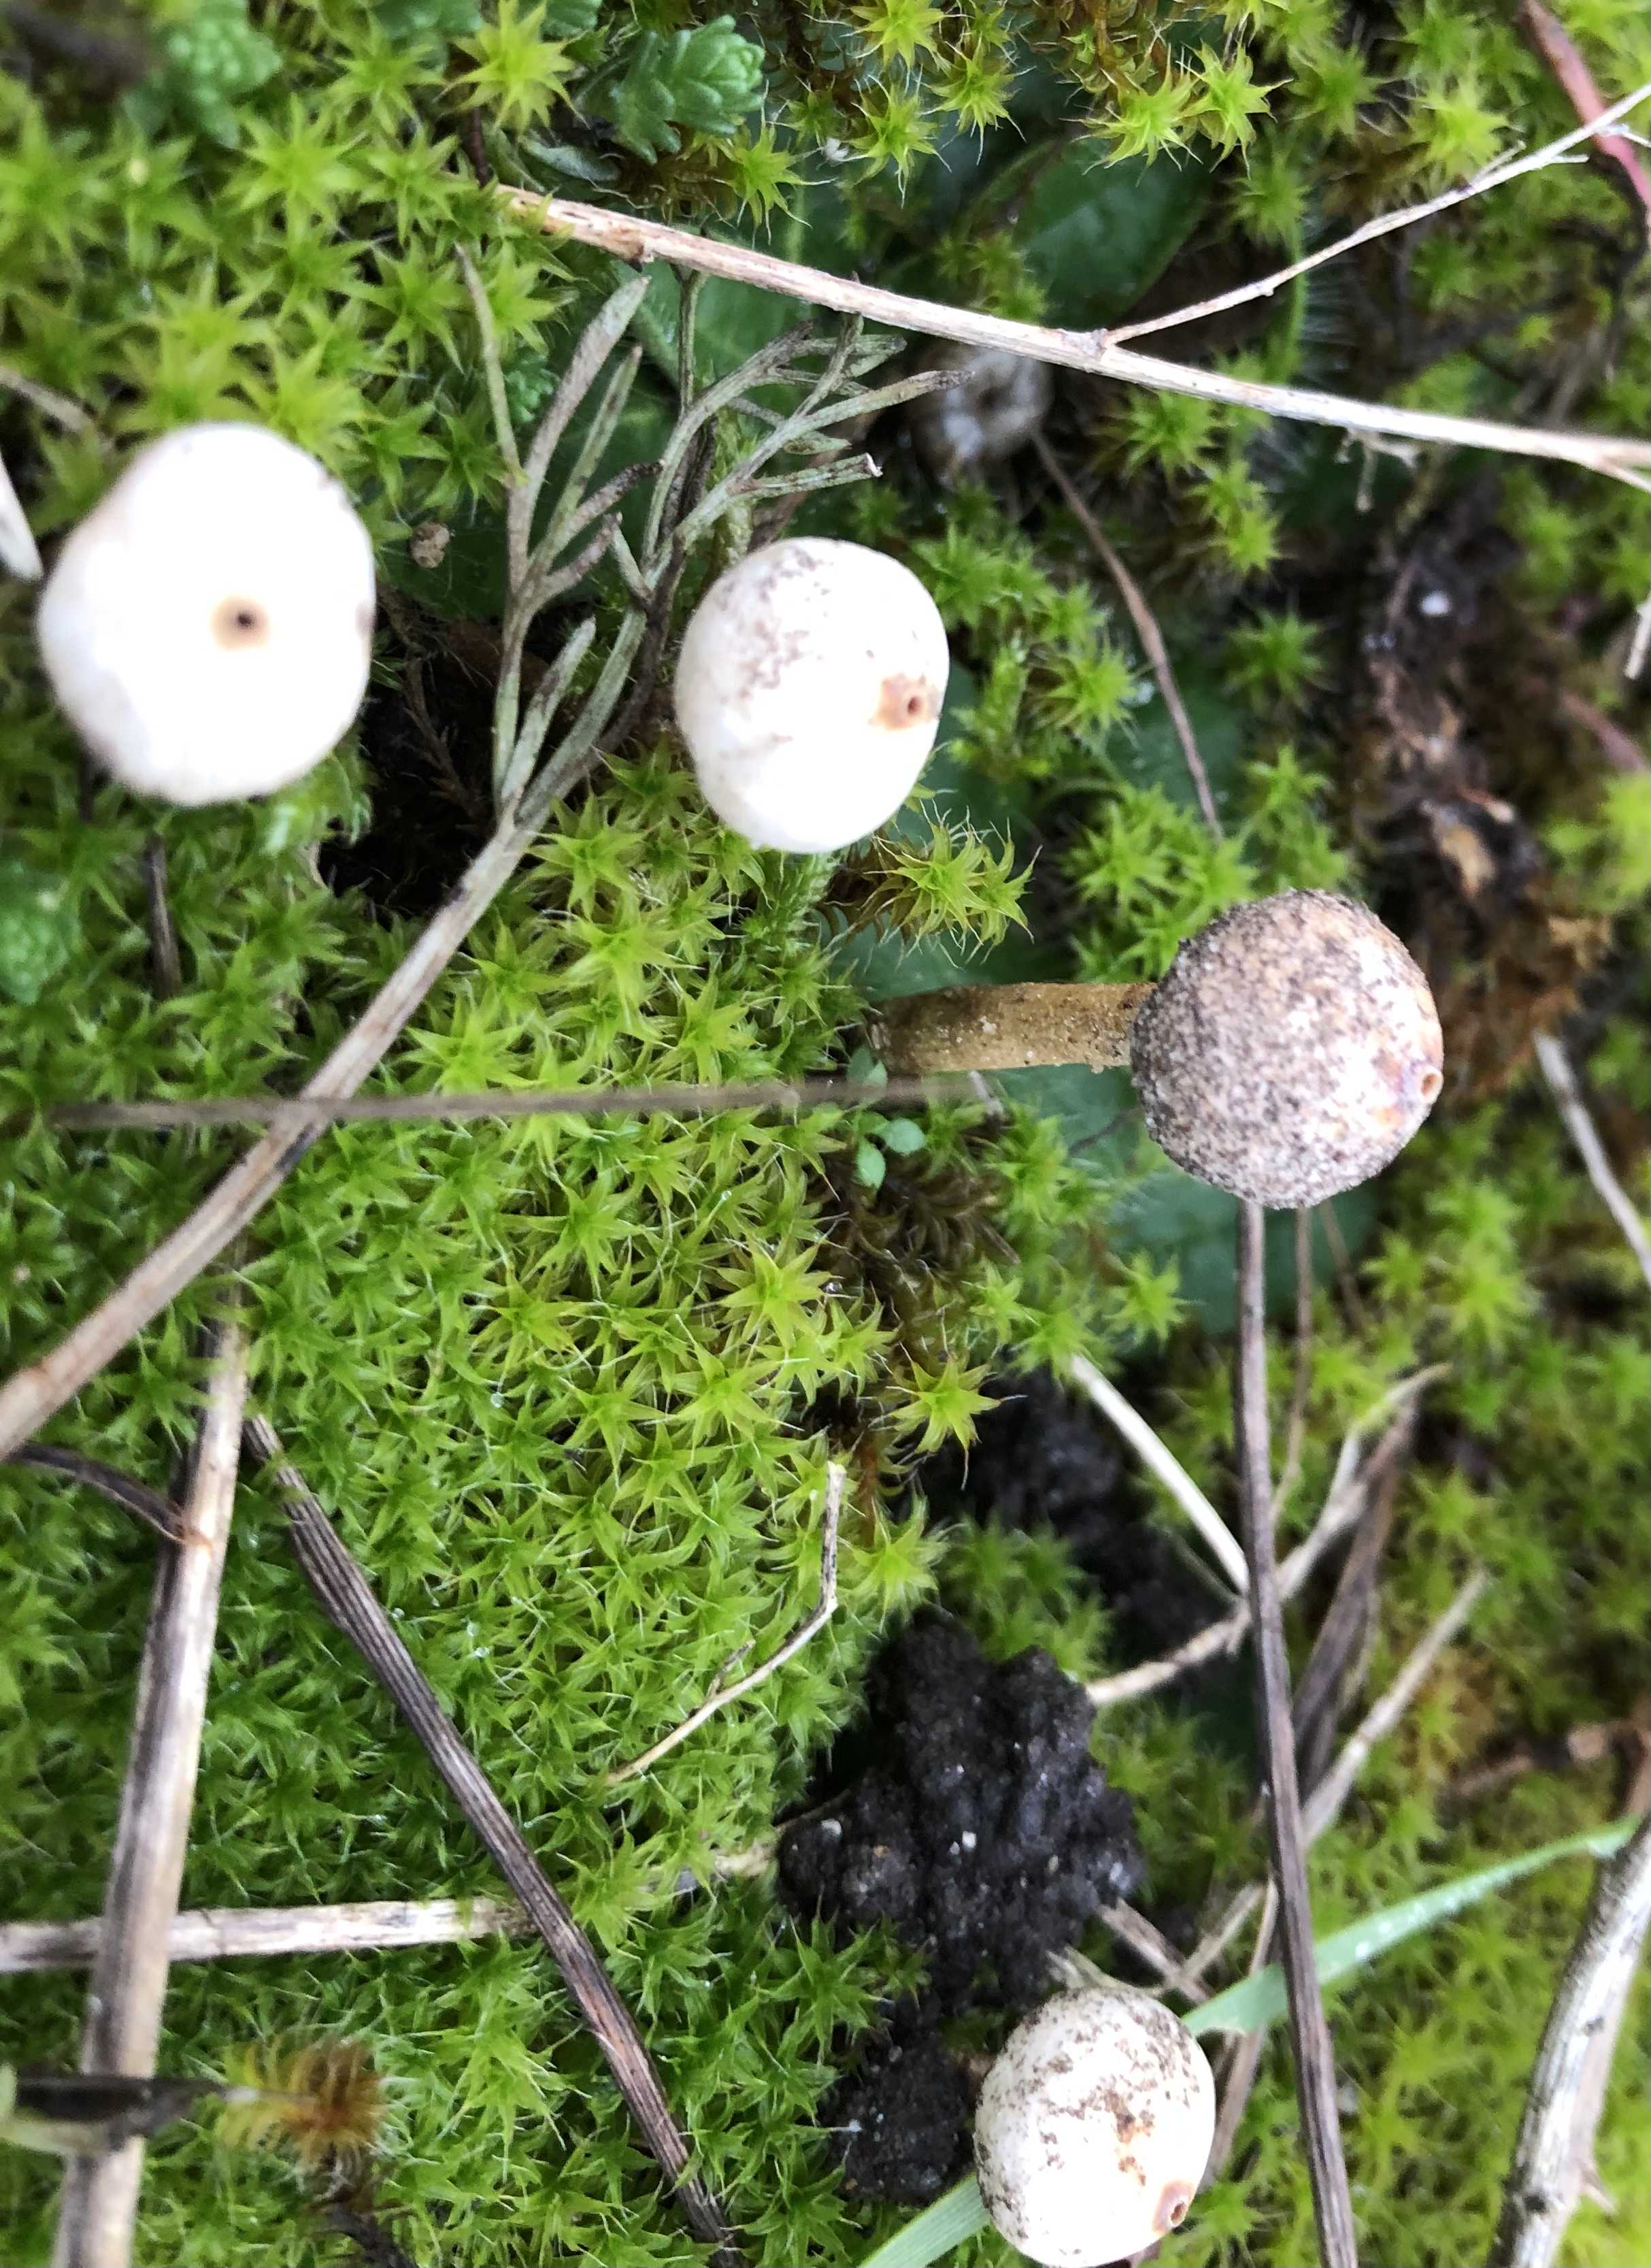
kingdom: Fungi
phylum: Basidiomycota
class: Agaricomycetes
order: Agaricales
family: Agaricaceae
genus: Tulostoma
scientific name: Tulostoma brumale
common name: vinter-stilkbovist
